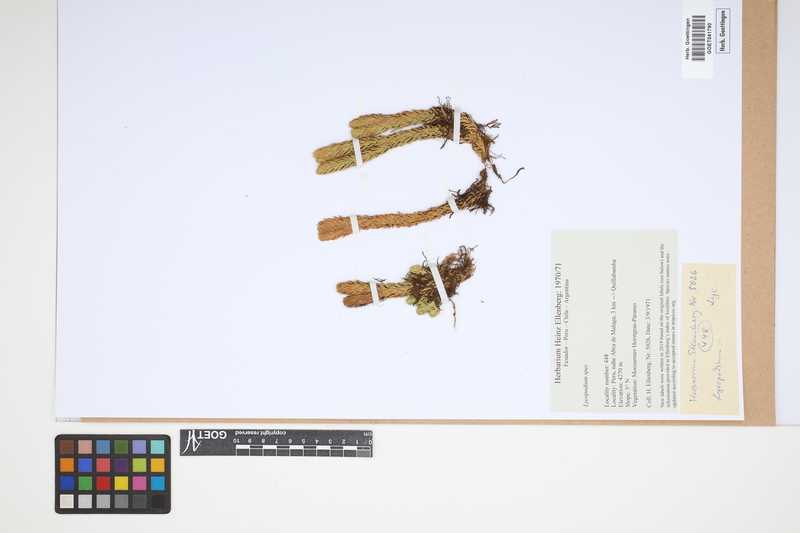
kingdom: Plantae
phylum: Tracheophyta
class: Lycopodiopsida
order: Lycopodiales
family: Lycopodiaceae
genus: Lycopodium
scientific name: Lycopodium
